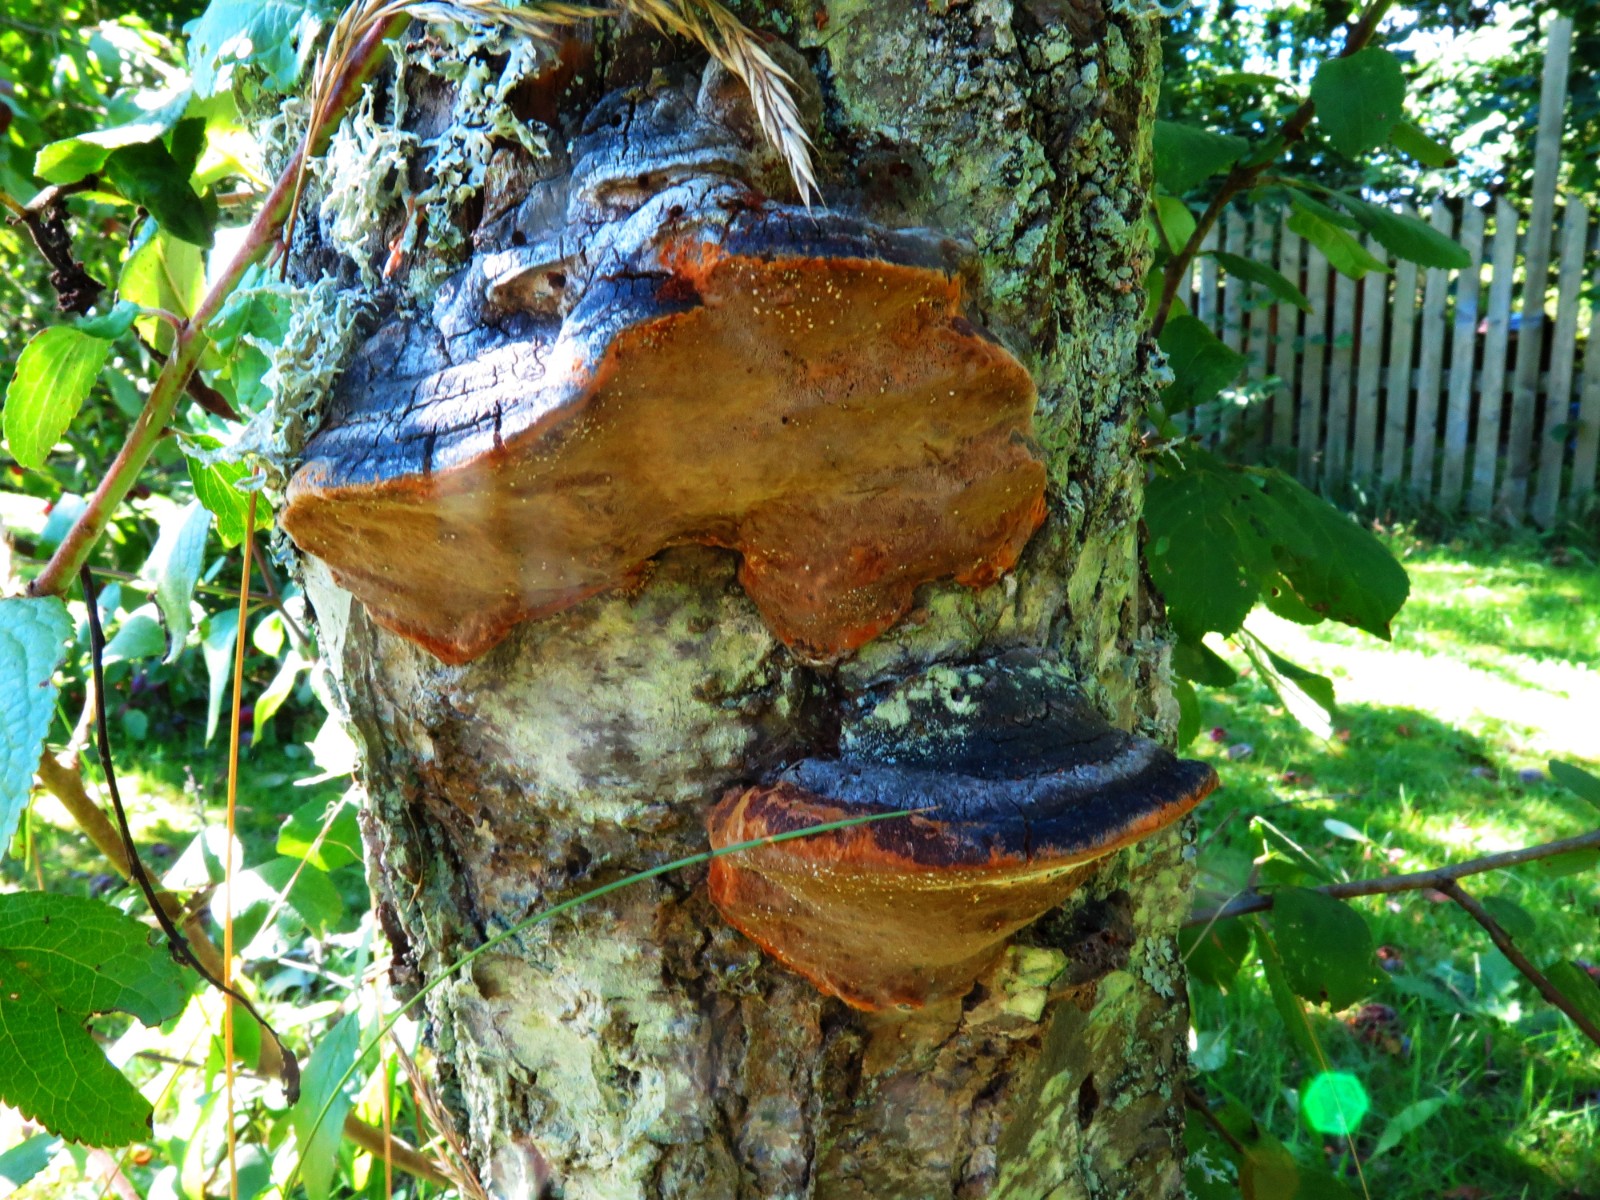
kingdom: Fungi
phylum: Basidiomycota
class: Agaricomycetes
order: Hymenochaetales
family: Hymenochaetaceae
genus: Phellinus
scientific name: Phellinus pomaceus
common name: blomme-ildporesvamp
